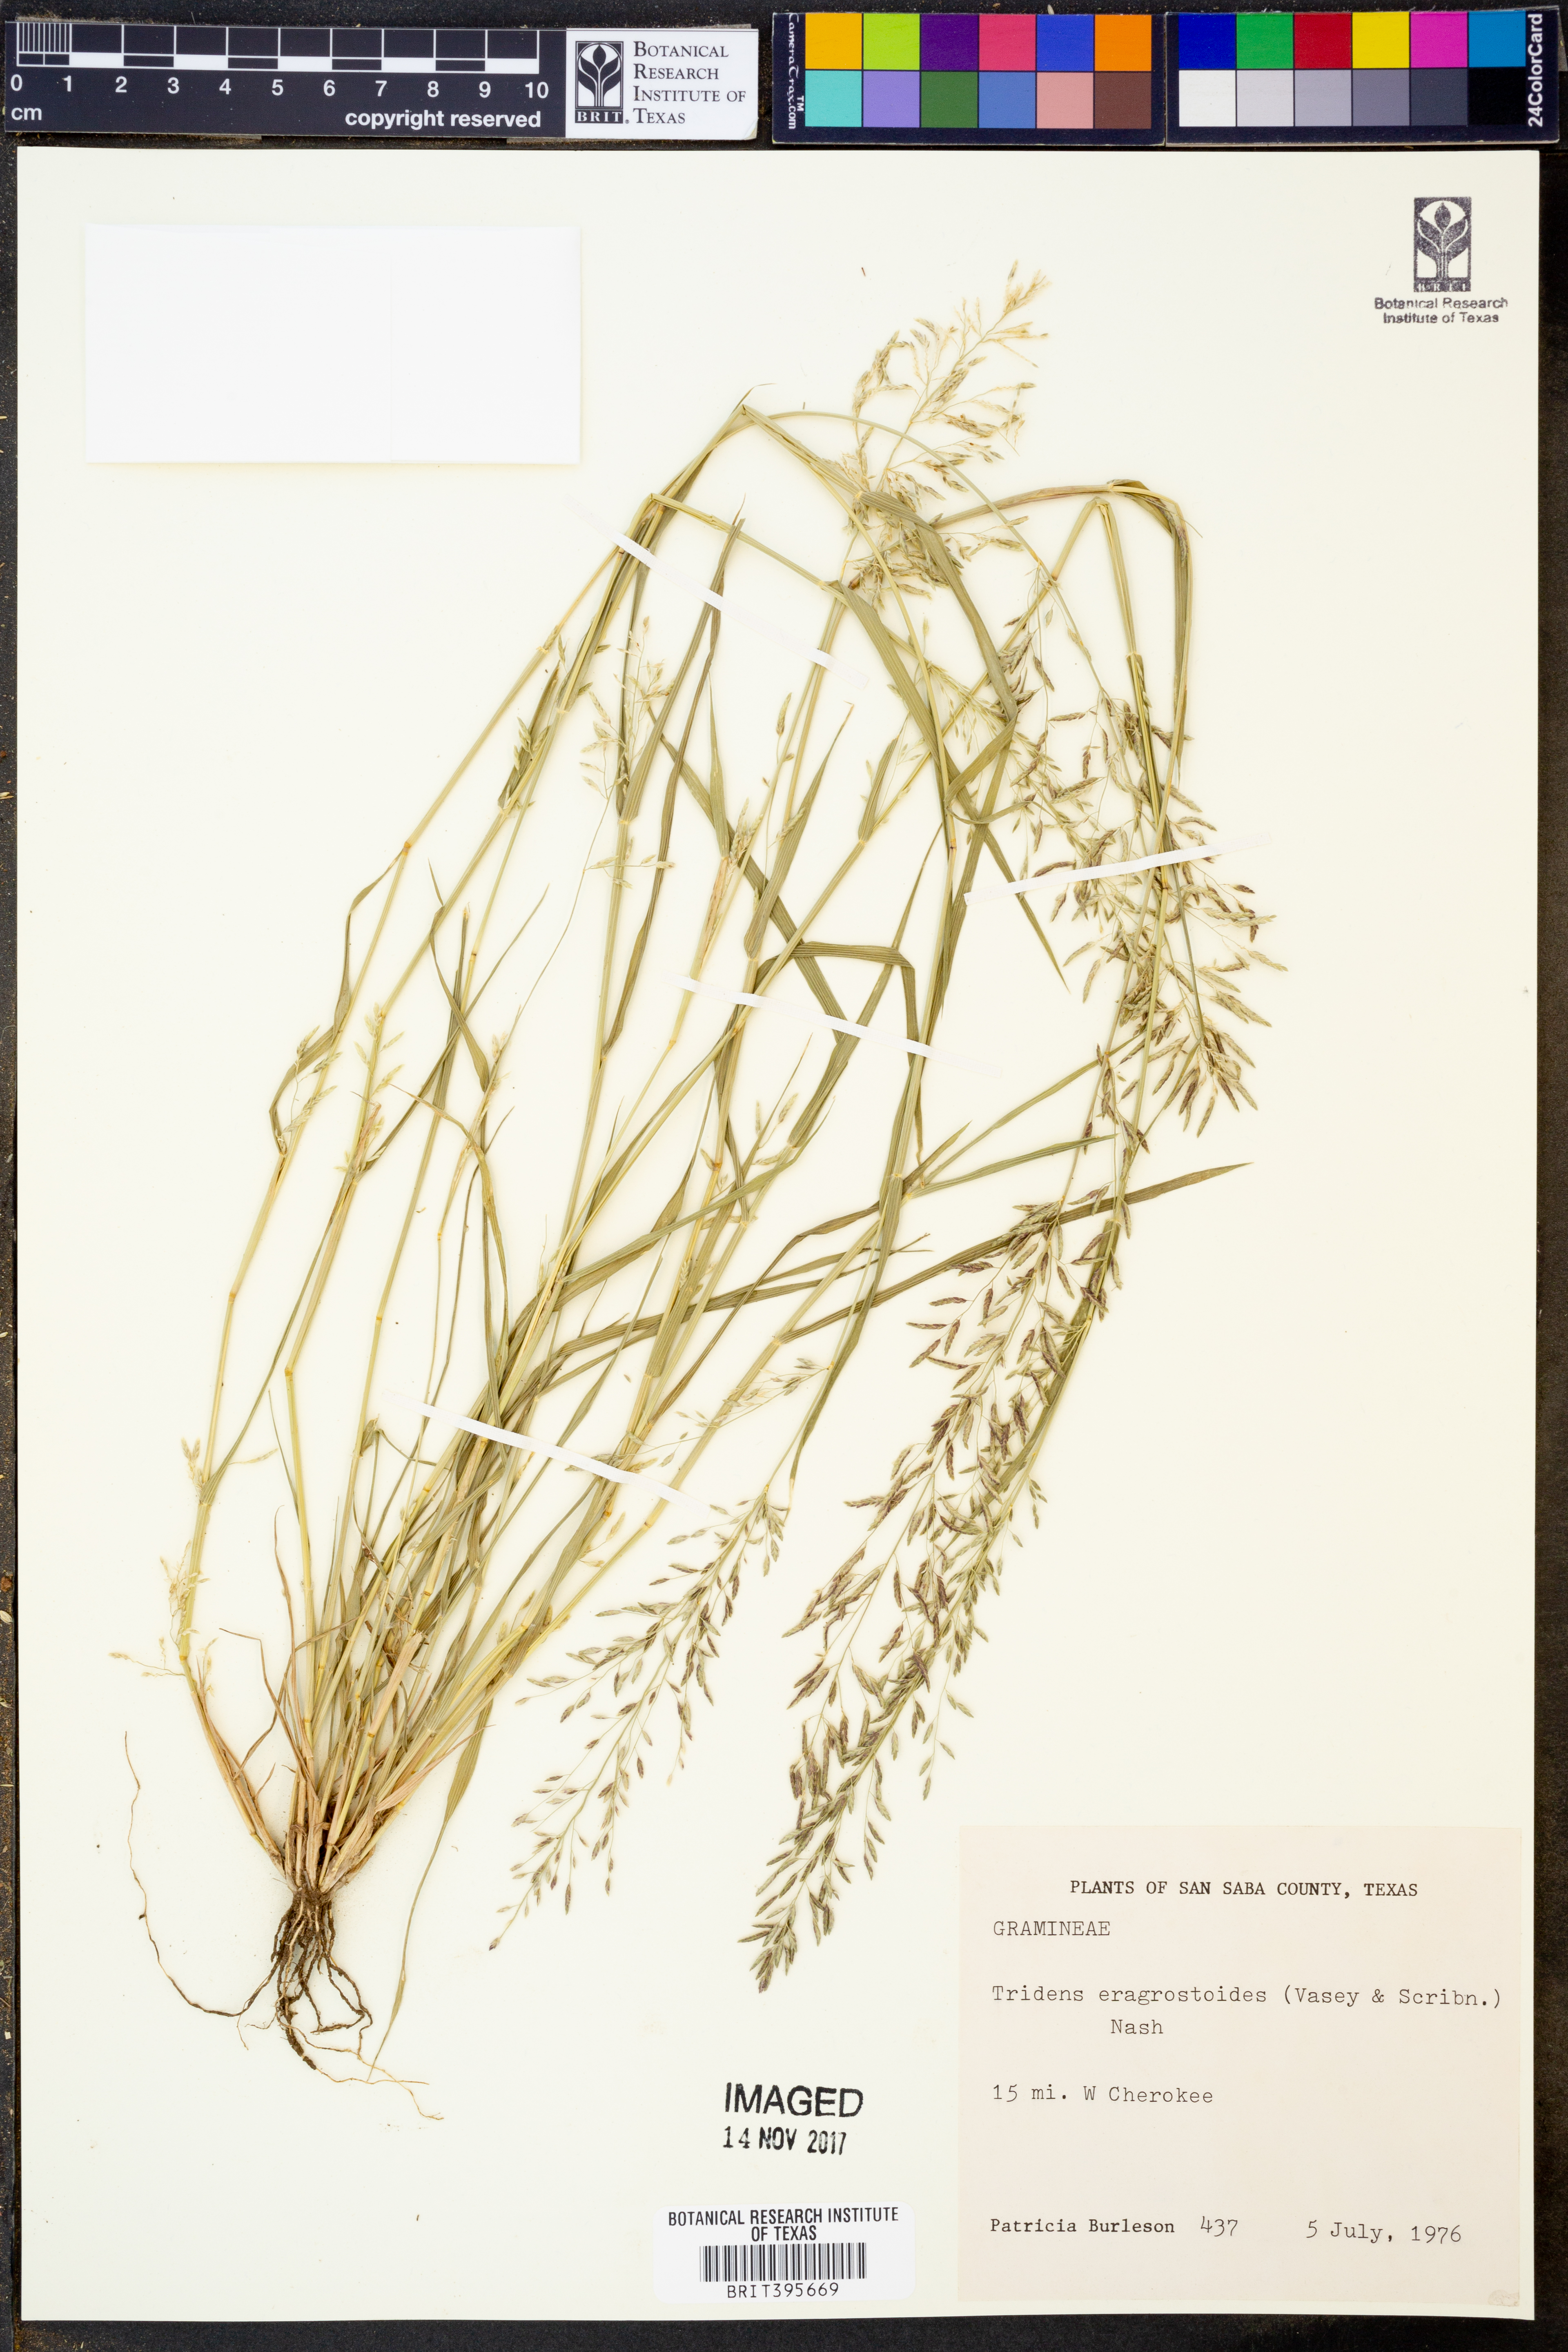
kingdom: Plantae
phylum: Tracheophyta
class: Liliopsida
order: Poales
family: Poaceae
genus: Triplasiella
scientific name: Triplasiella eragrostoides
